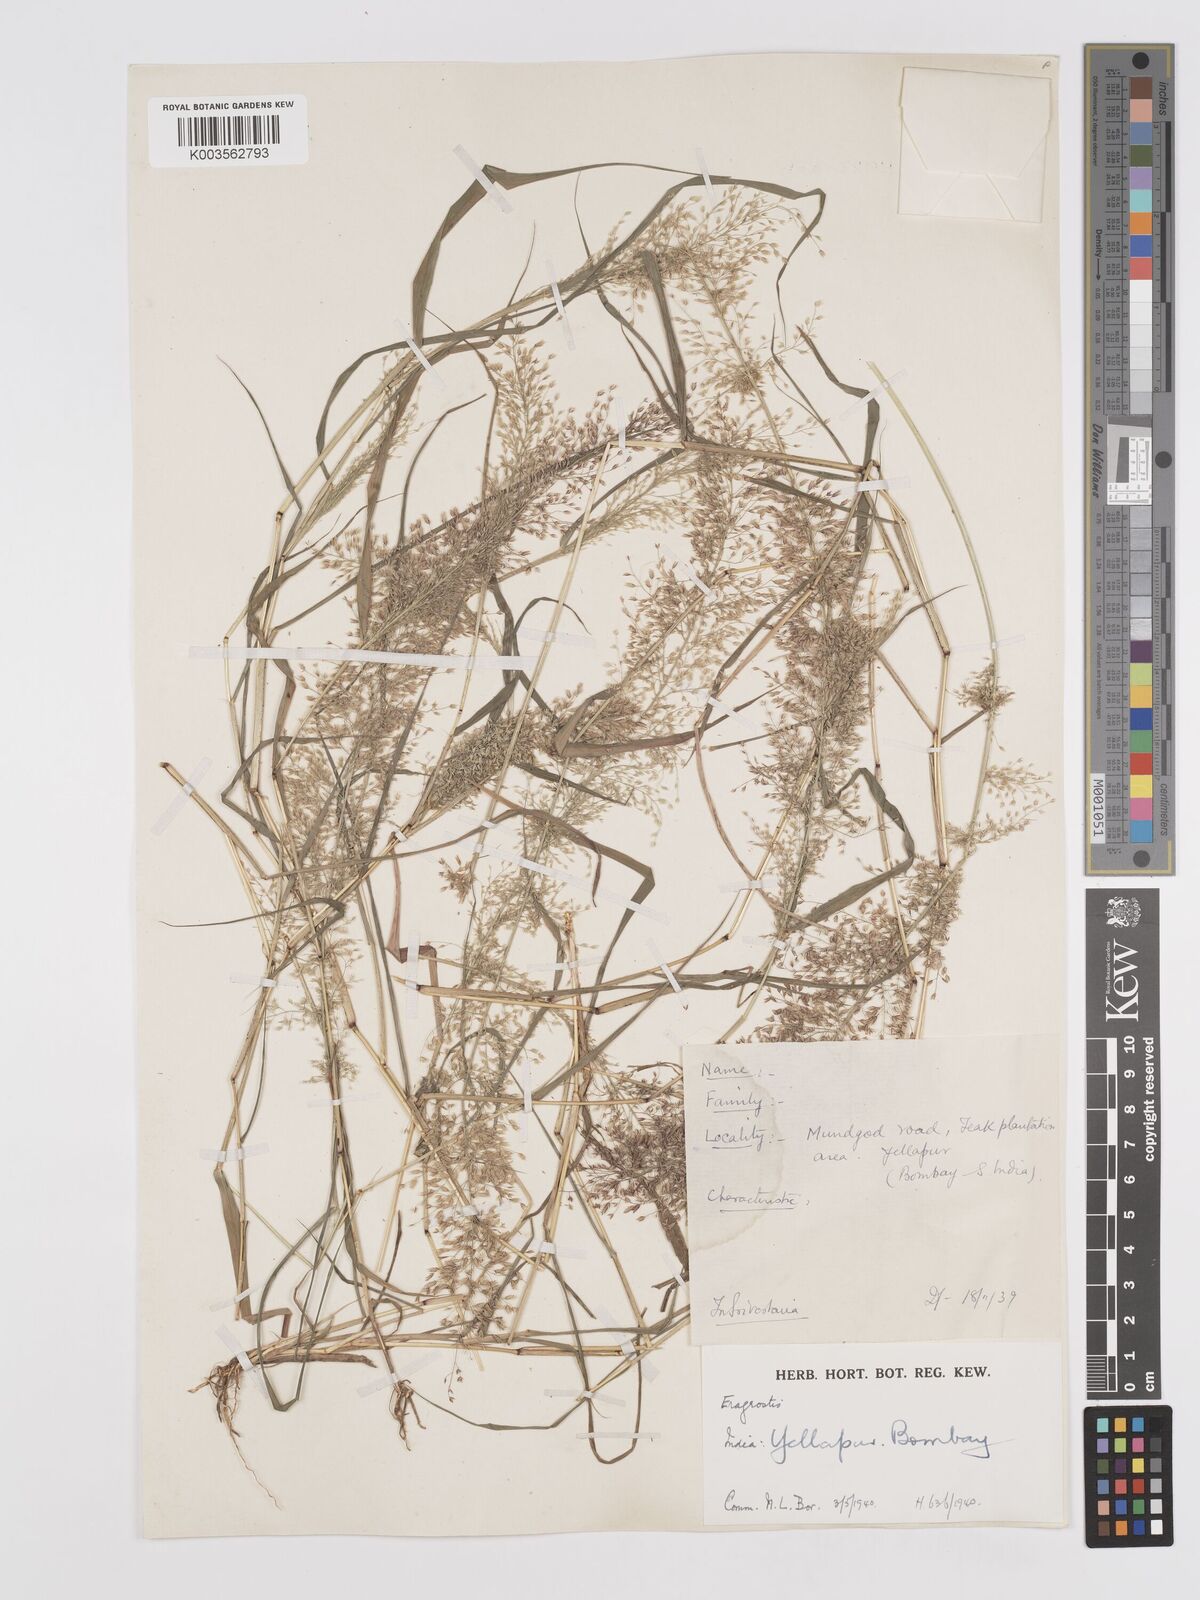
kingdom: Plantae
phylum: Tracheophyta
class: Liliopsida
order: Poales
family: Poaceae
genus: Eragrostis
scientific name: Eragrostis viscosa
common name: Sticky love grass
